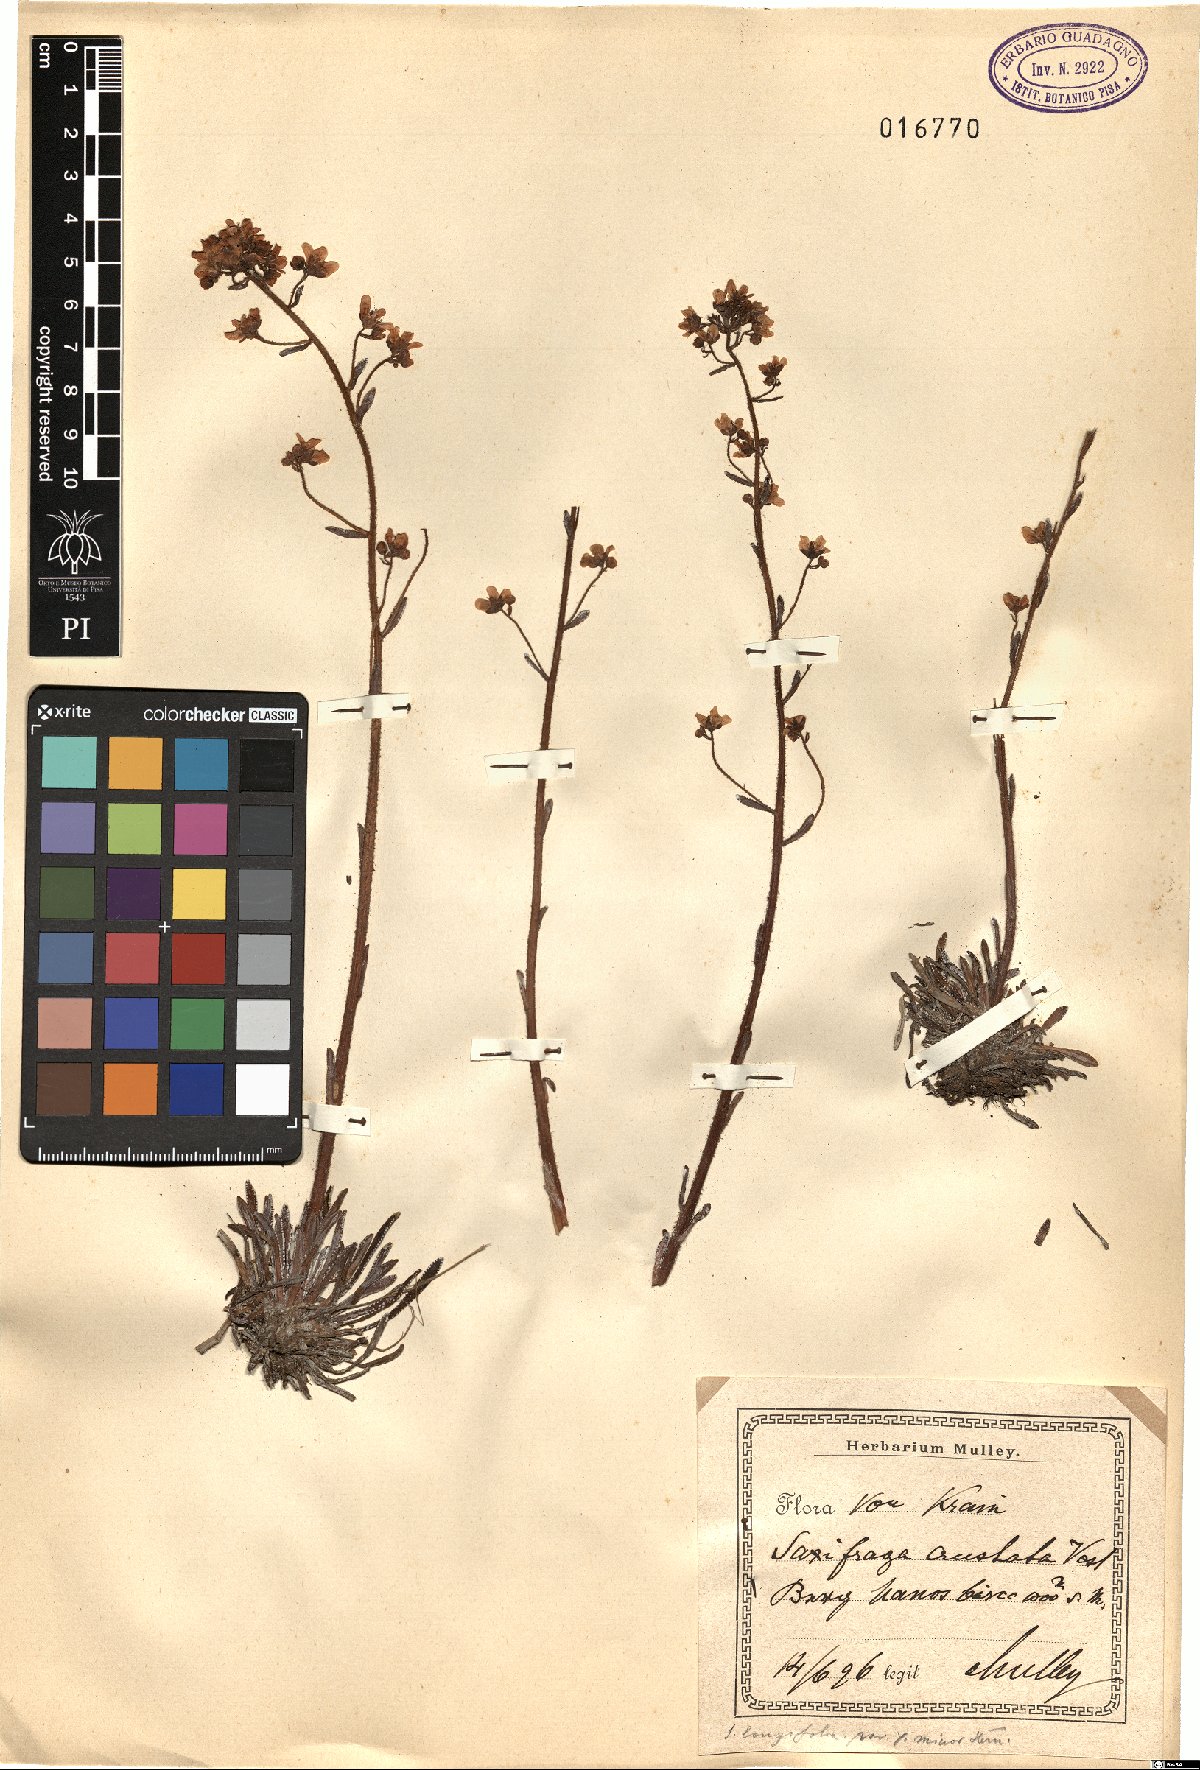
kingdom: Plantae
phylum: Tracheophyta
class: Magnoliopsida
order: Saxifragales
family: Saxifragaceae
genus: Saxifraga
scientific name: Saxifraga crustata
